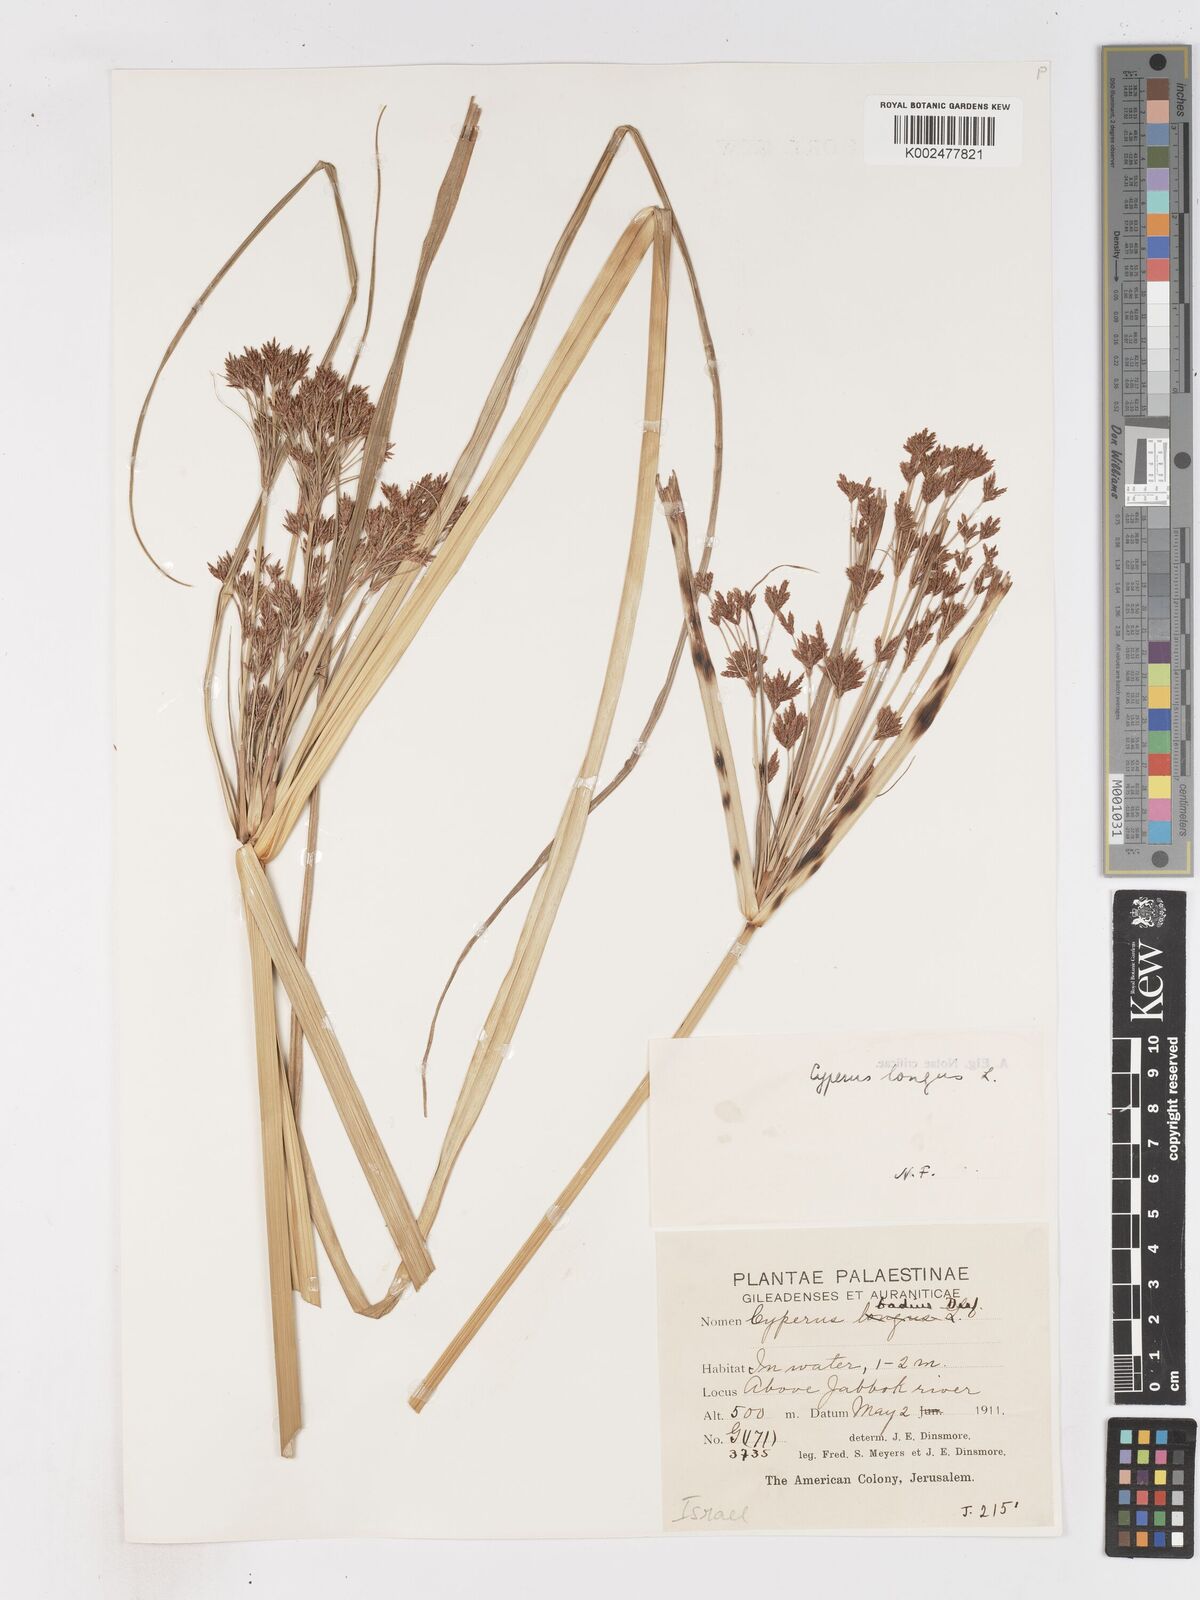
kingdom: Plantae
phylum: Tracheophyta
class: Liliopsida
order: Poales
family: Cyperaceae
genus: Cyperus
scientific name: Cyperus longus
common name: Galingale
